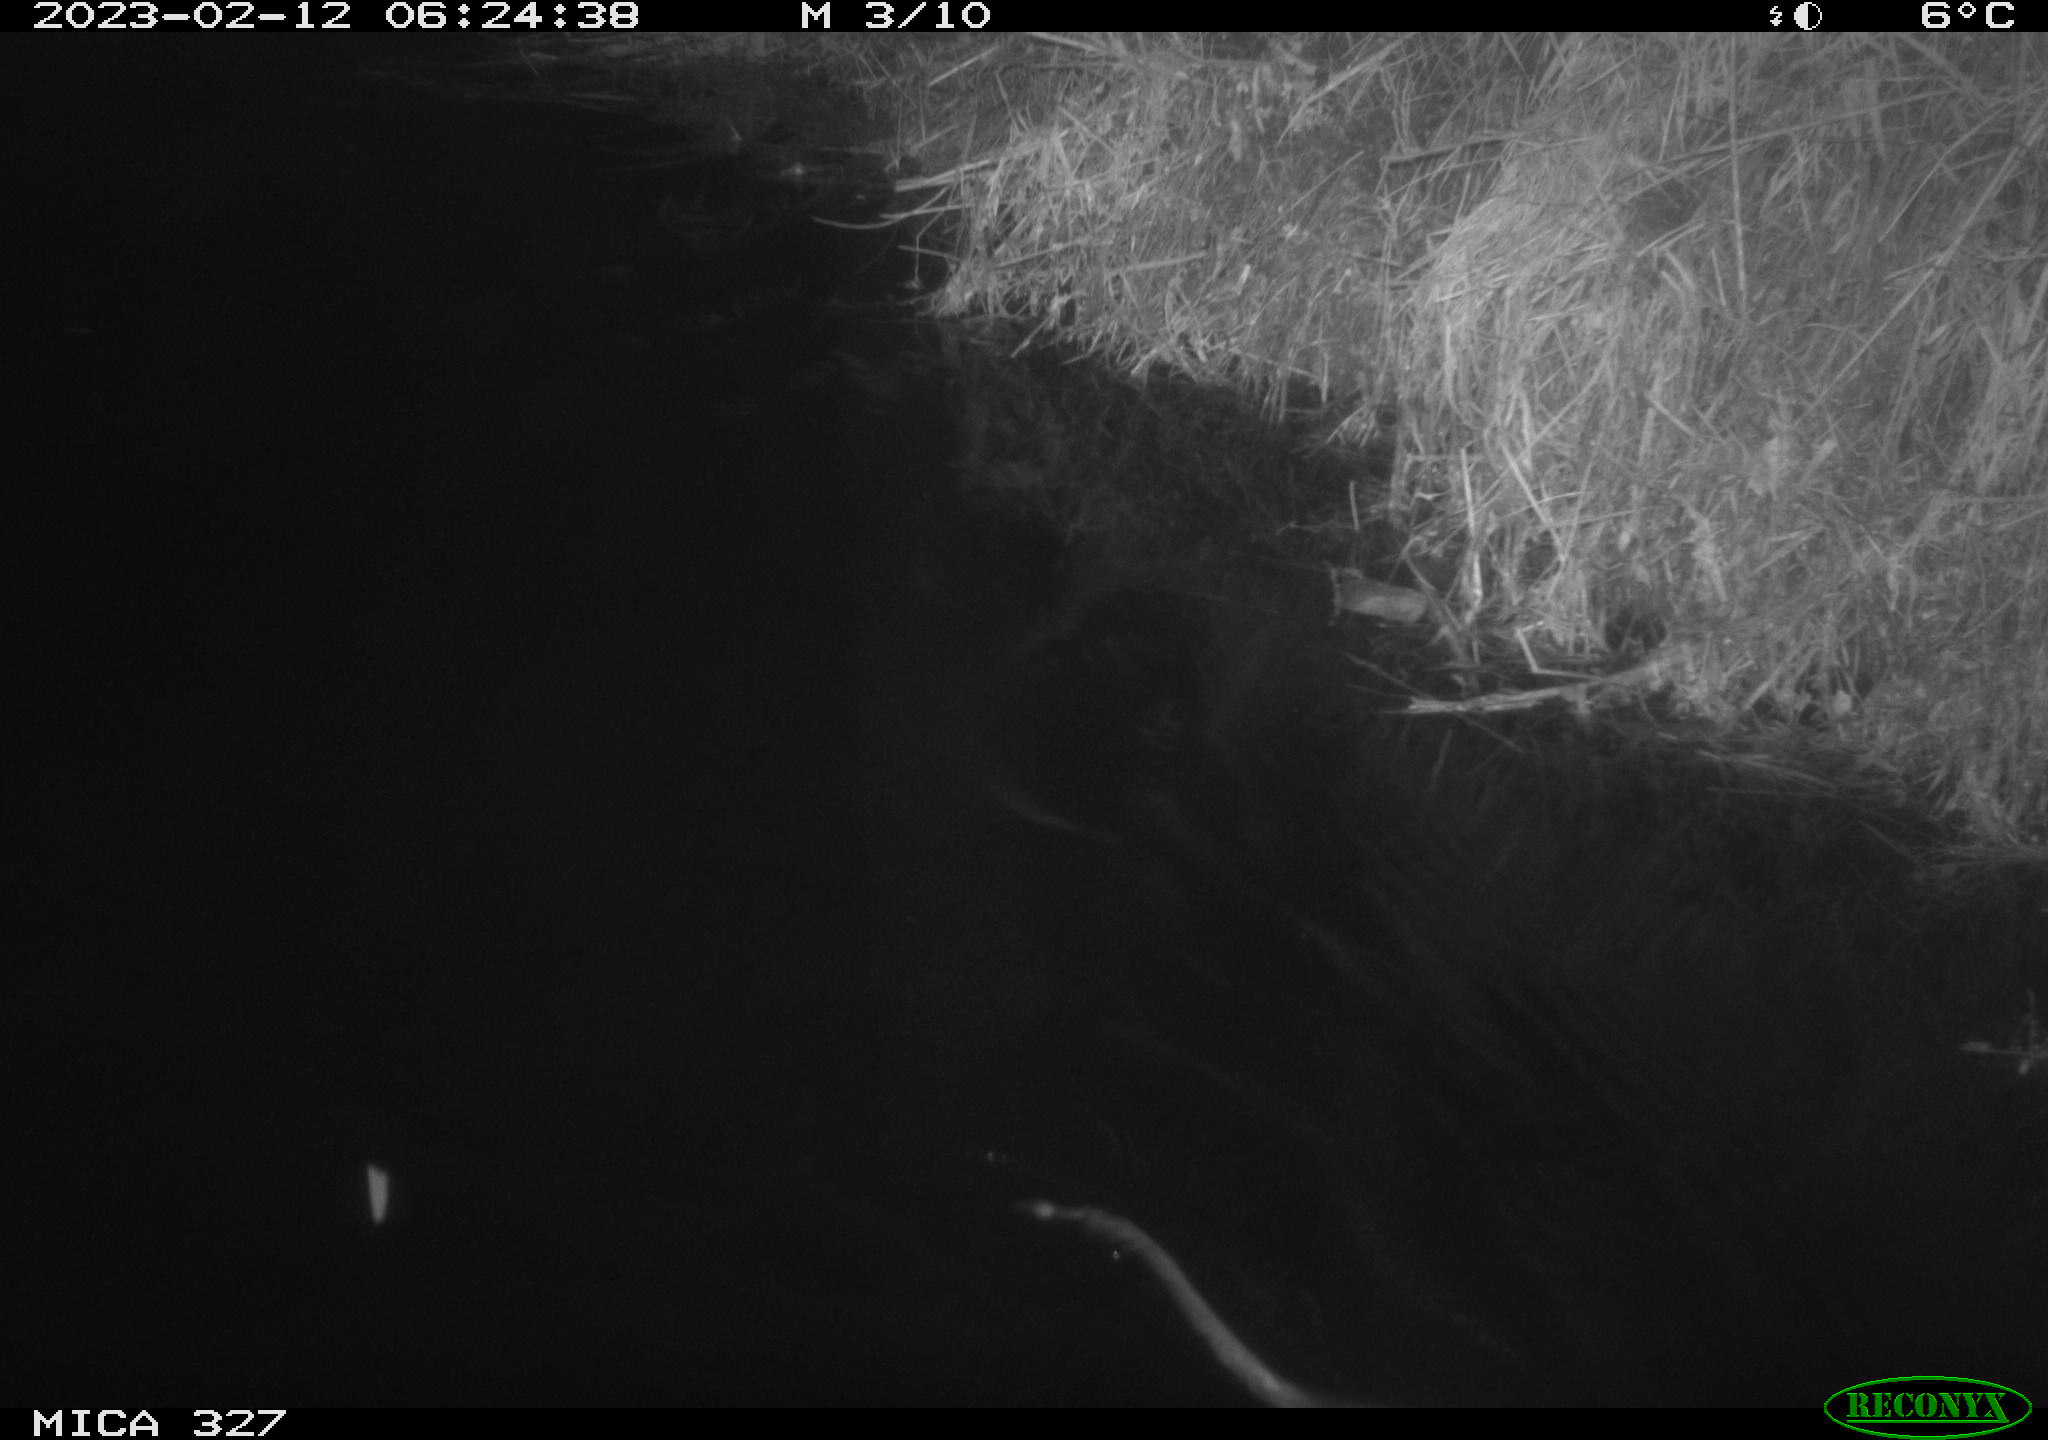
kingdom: Animalia
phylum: Chordata
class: Mammalia
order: Rodentia
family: Cricetidae
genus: Ondatra
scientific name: Ondatra zibethicus
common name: Muskrat
